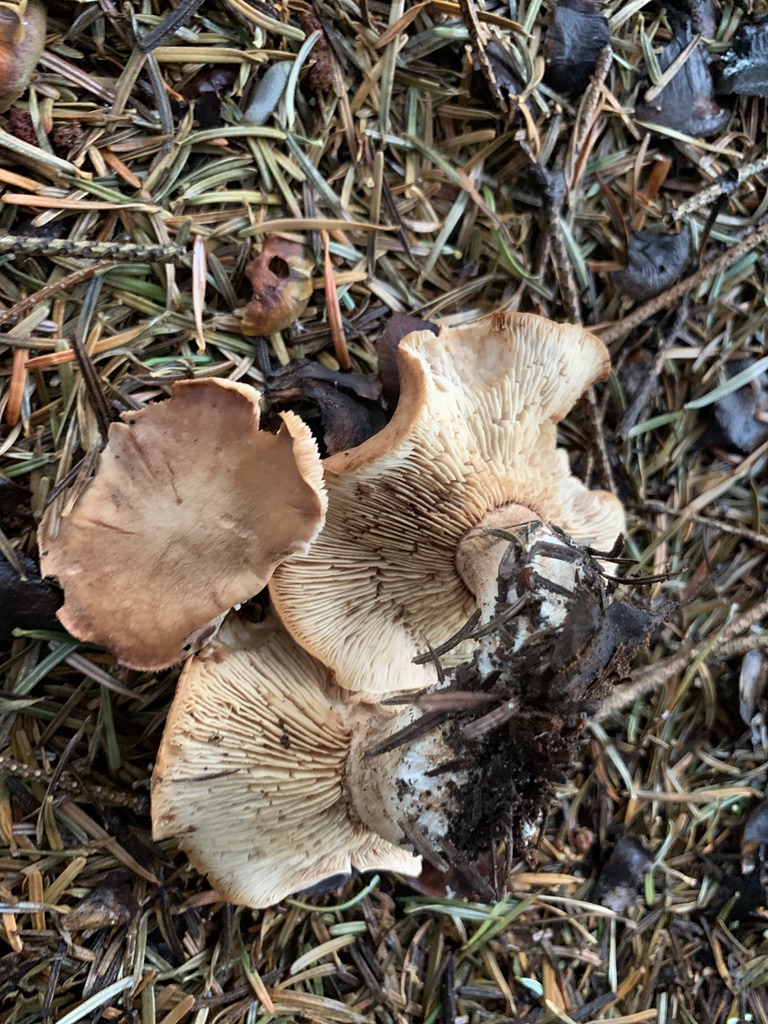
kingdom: Fungi
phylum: Basidiomycota
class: Agaricomycetes
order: Agaricales
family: Entolomataceae
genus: Clitopilus
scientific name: Clitopilus geminus
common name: kødfarvet troldhat
